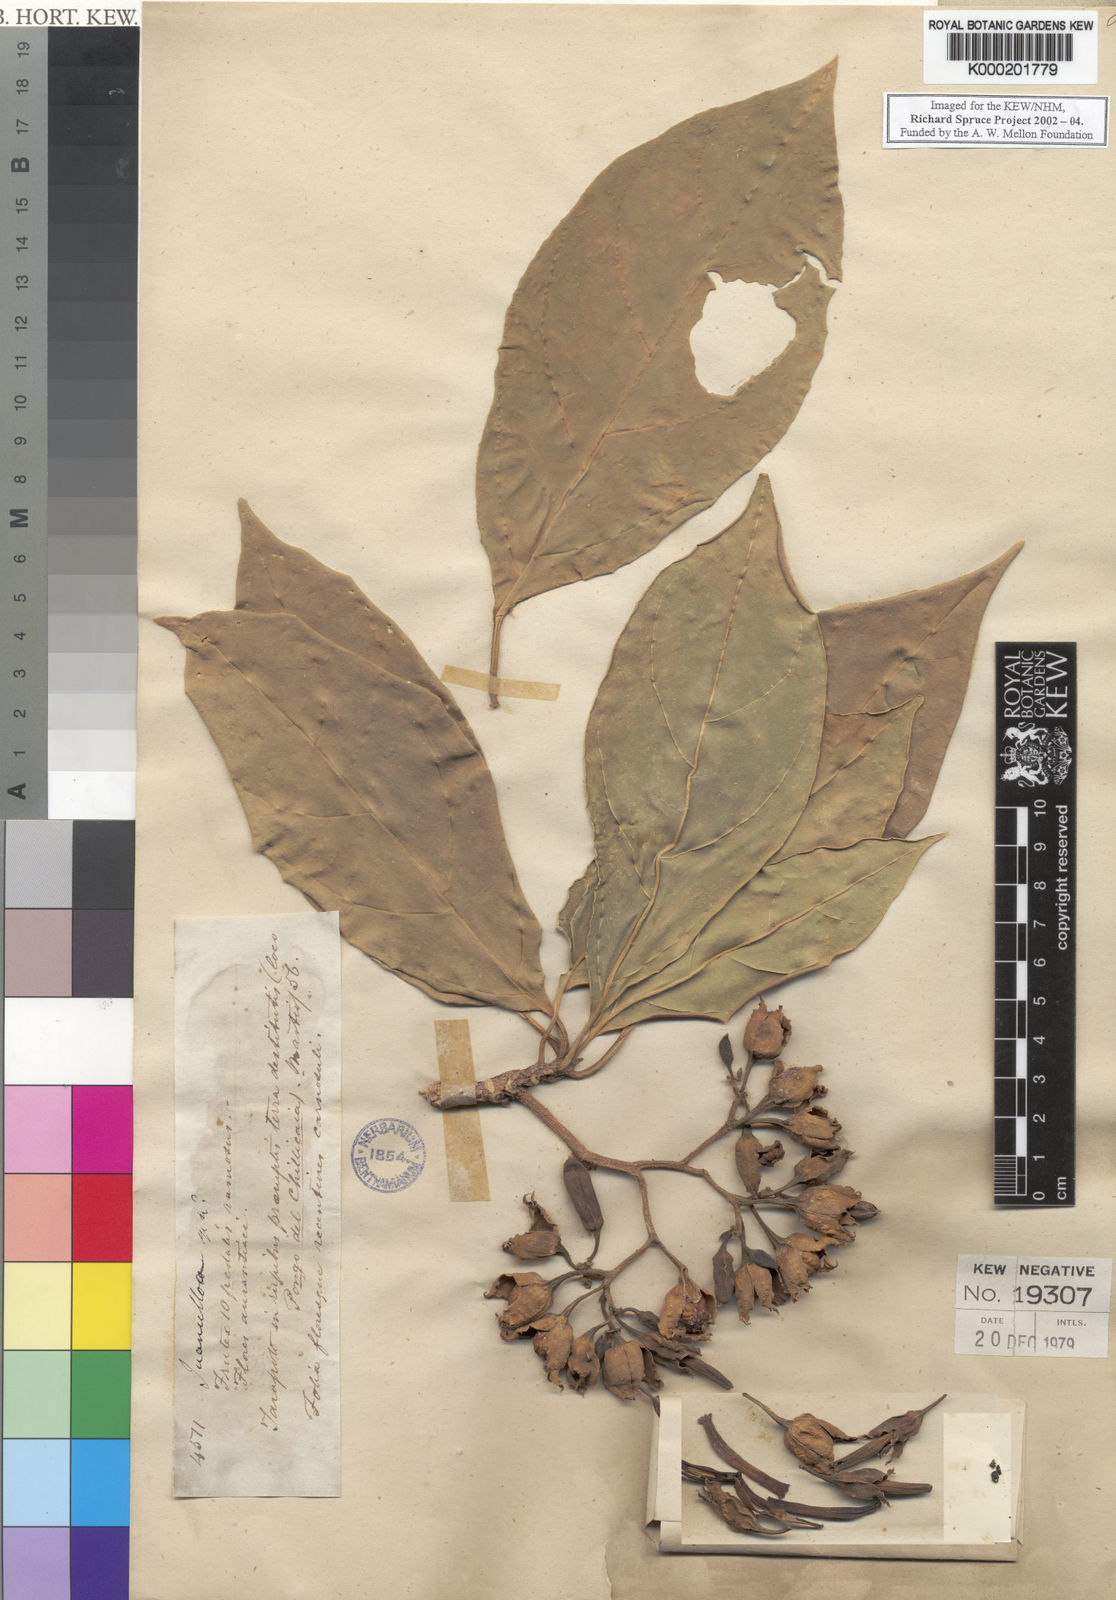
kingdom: Plantae
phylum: Tracheophyta
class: Magnoliopsida
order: Solanales
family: Solanaceae
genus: Juanulloa
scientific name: Juanulloa parasitica
